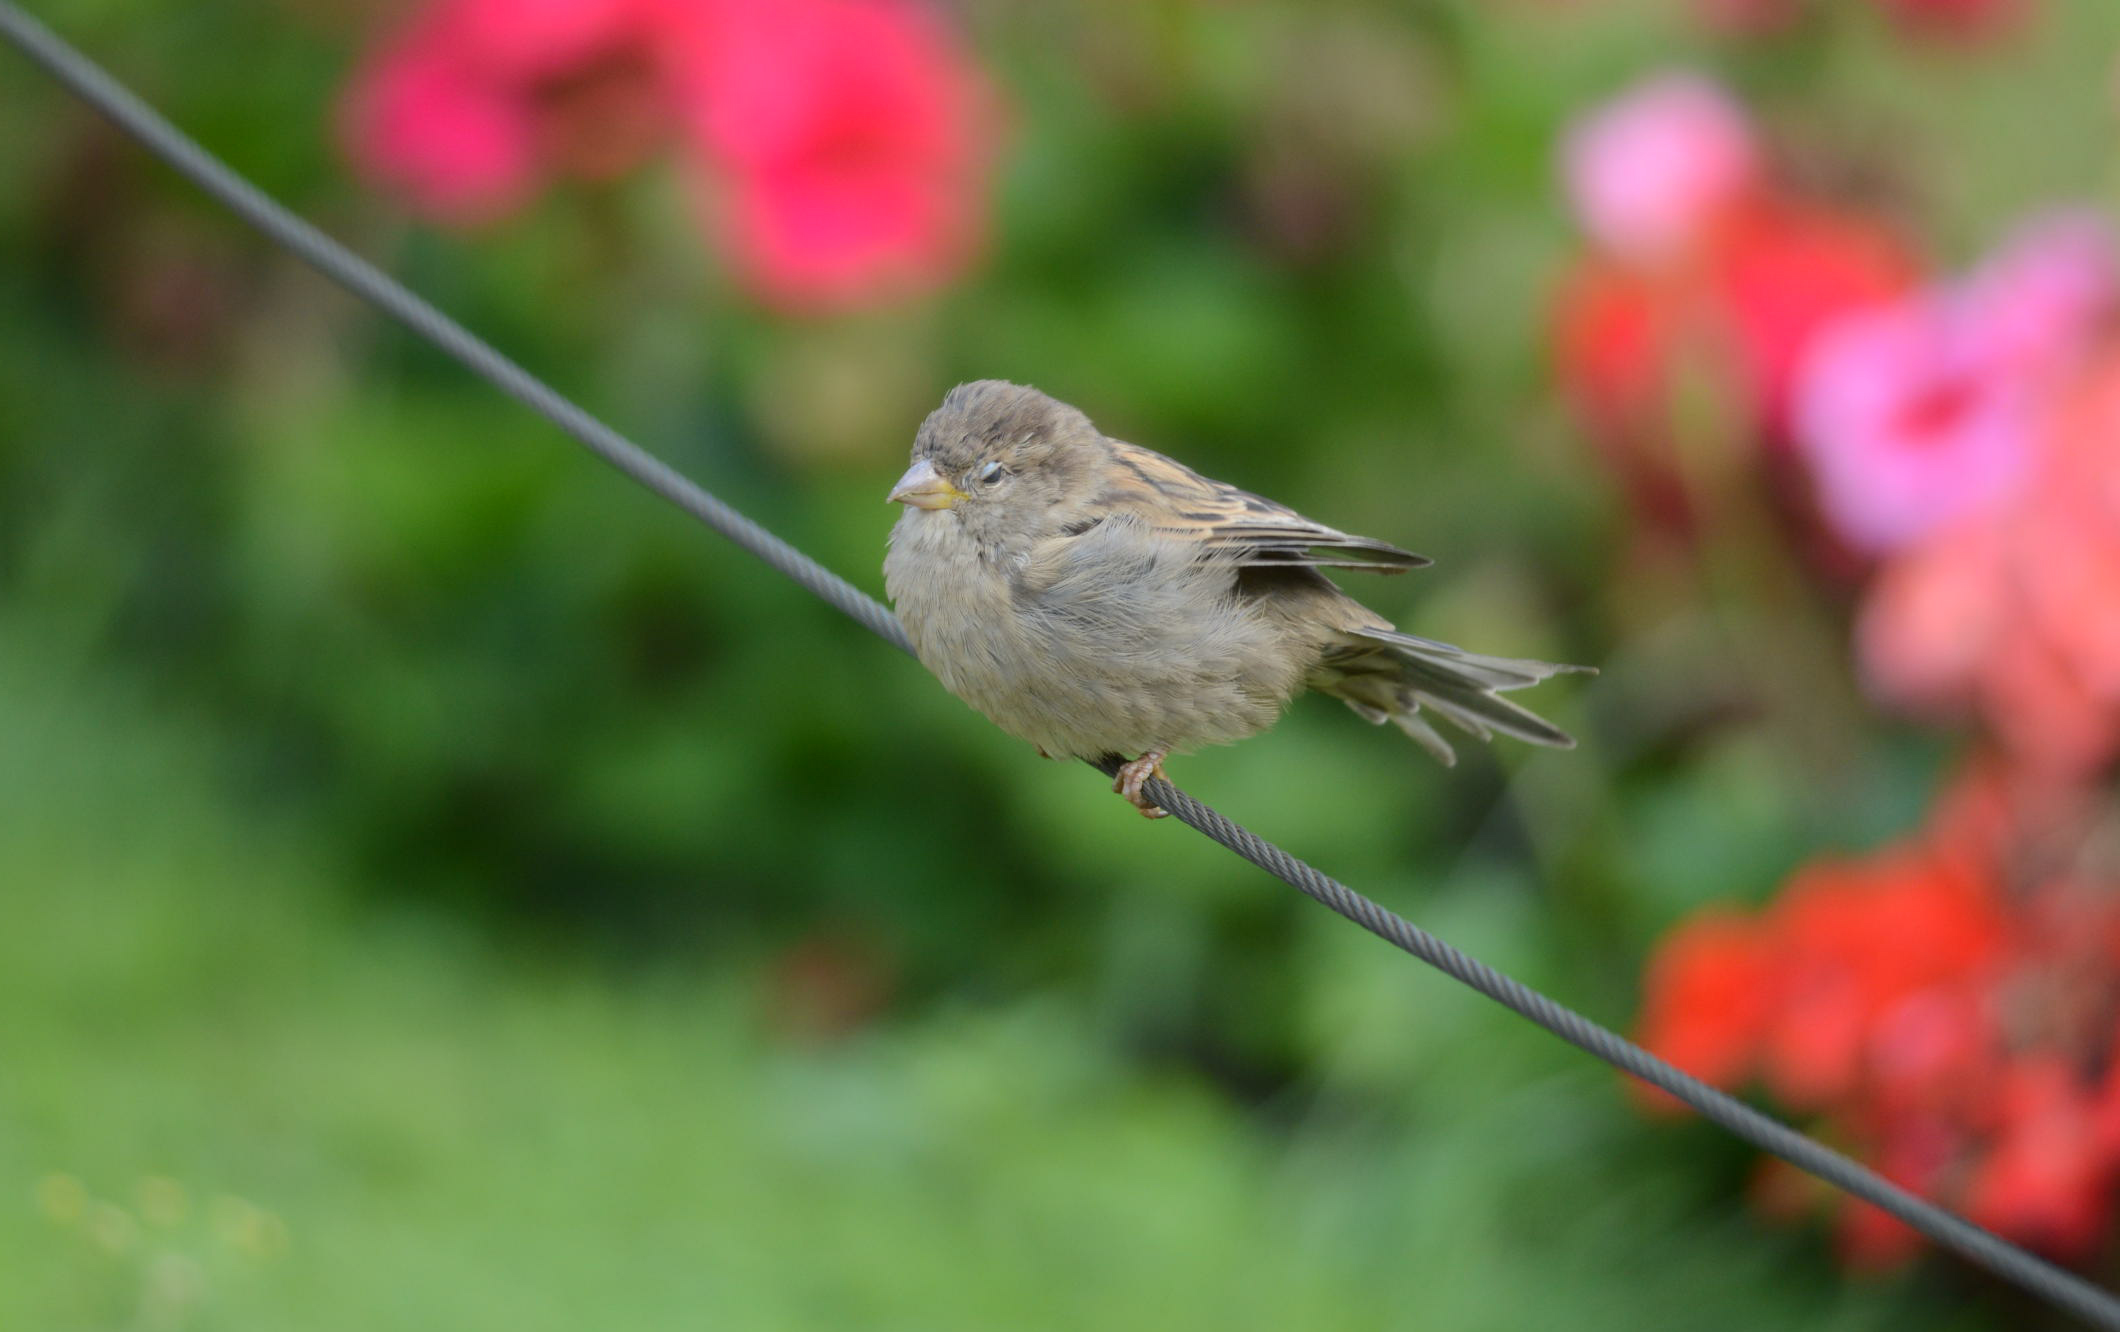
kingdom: Animalia
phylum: Chordata
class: Aves
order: Passeriformes
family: Passeridae
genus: Passer
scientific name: Passer domesticus
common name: House sparrow
